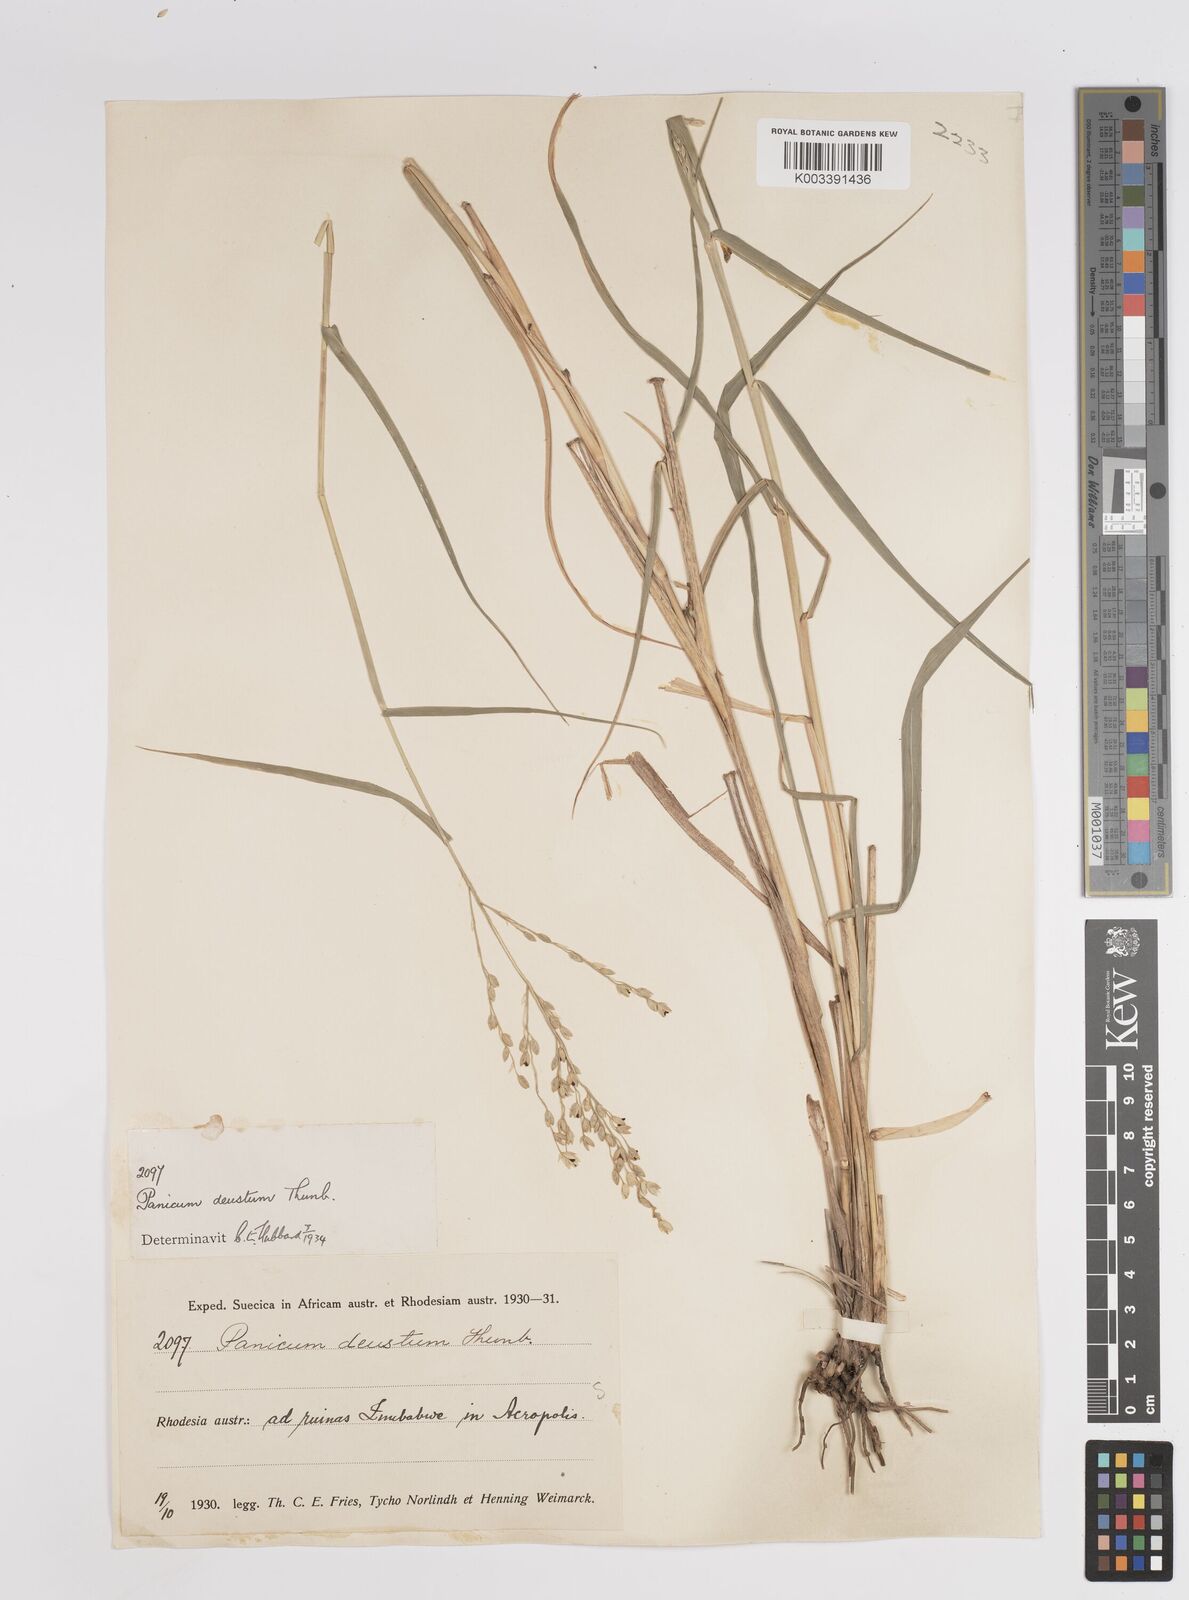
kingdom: Plantae
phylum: Tracheophyta
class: Liliopsida
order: Poales
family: Poaceae
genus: Panicum
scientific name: Panicum deustum
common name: Reed panicum
